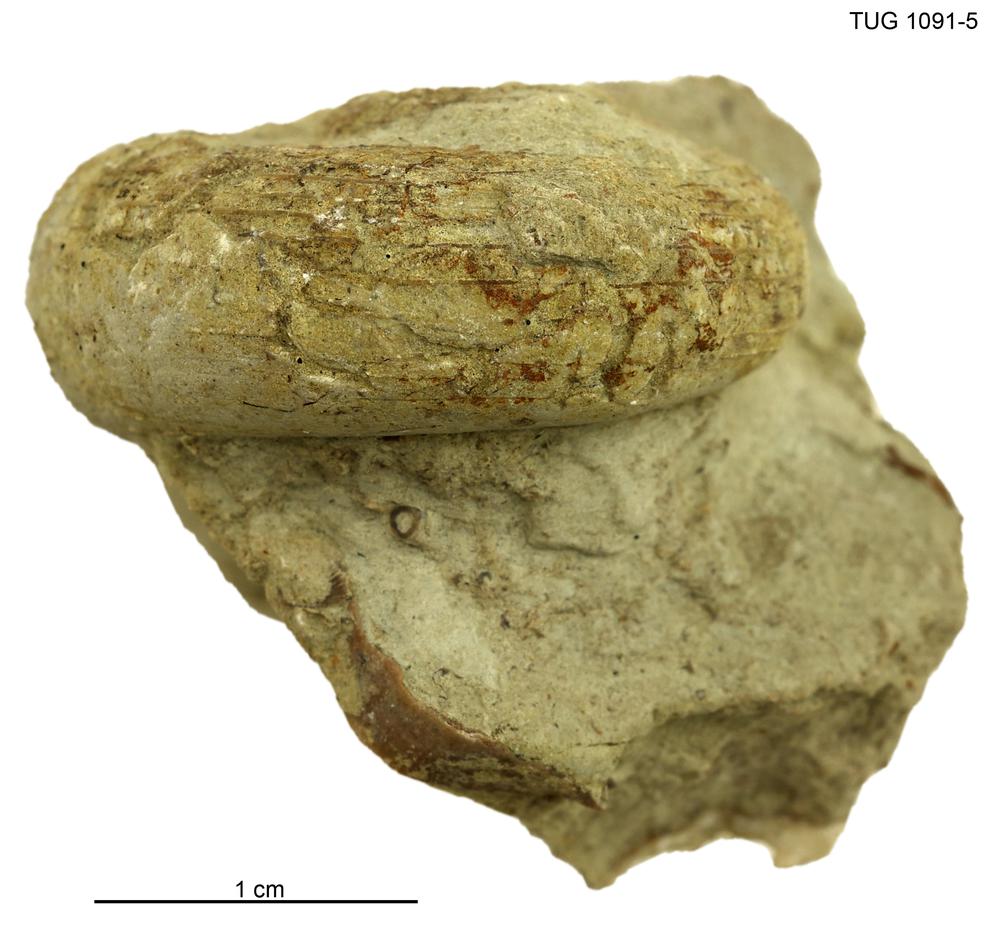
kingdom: Animalia
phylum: Mollusca
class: Gastropoda
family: Euomphalidae
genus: Poleumita
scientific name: Poleumita
